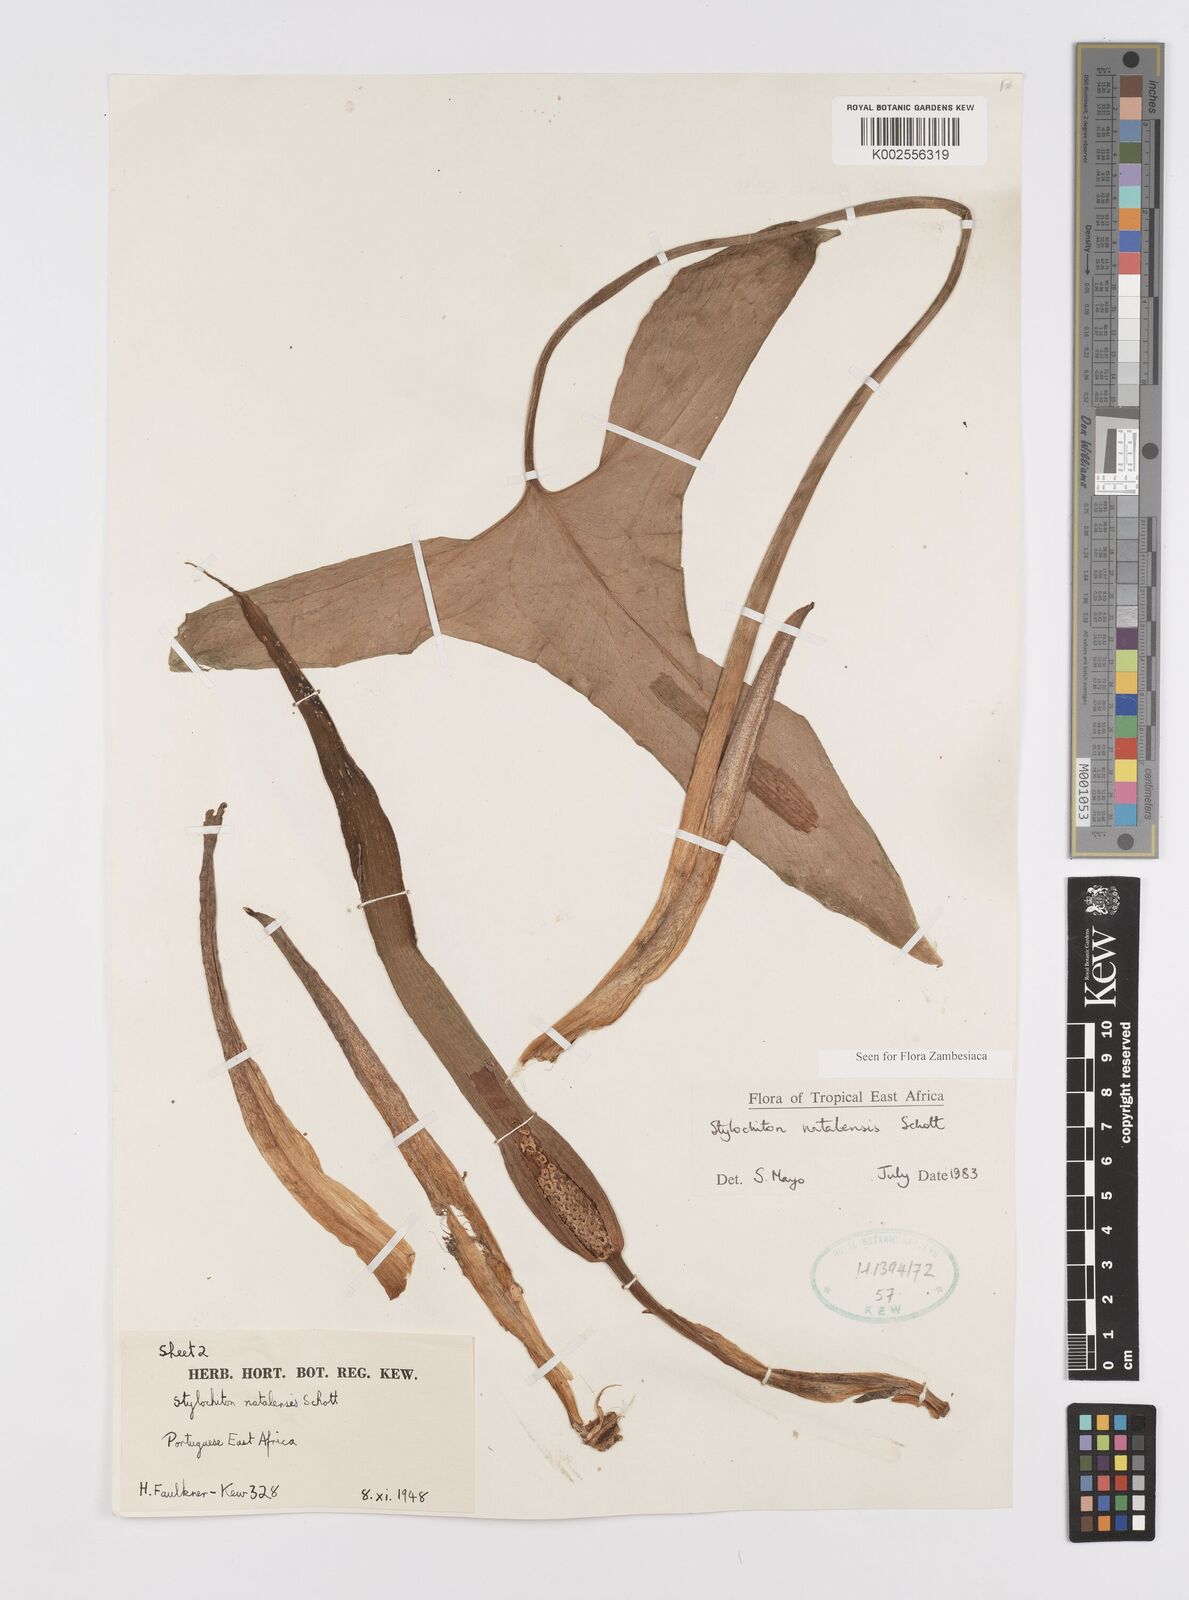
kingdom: Plantae
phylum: Tracheophyta
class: Liliopsida
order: Alismatales
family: Araceae
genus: Stylochaeton
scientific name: Stylochaeton natalense
